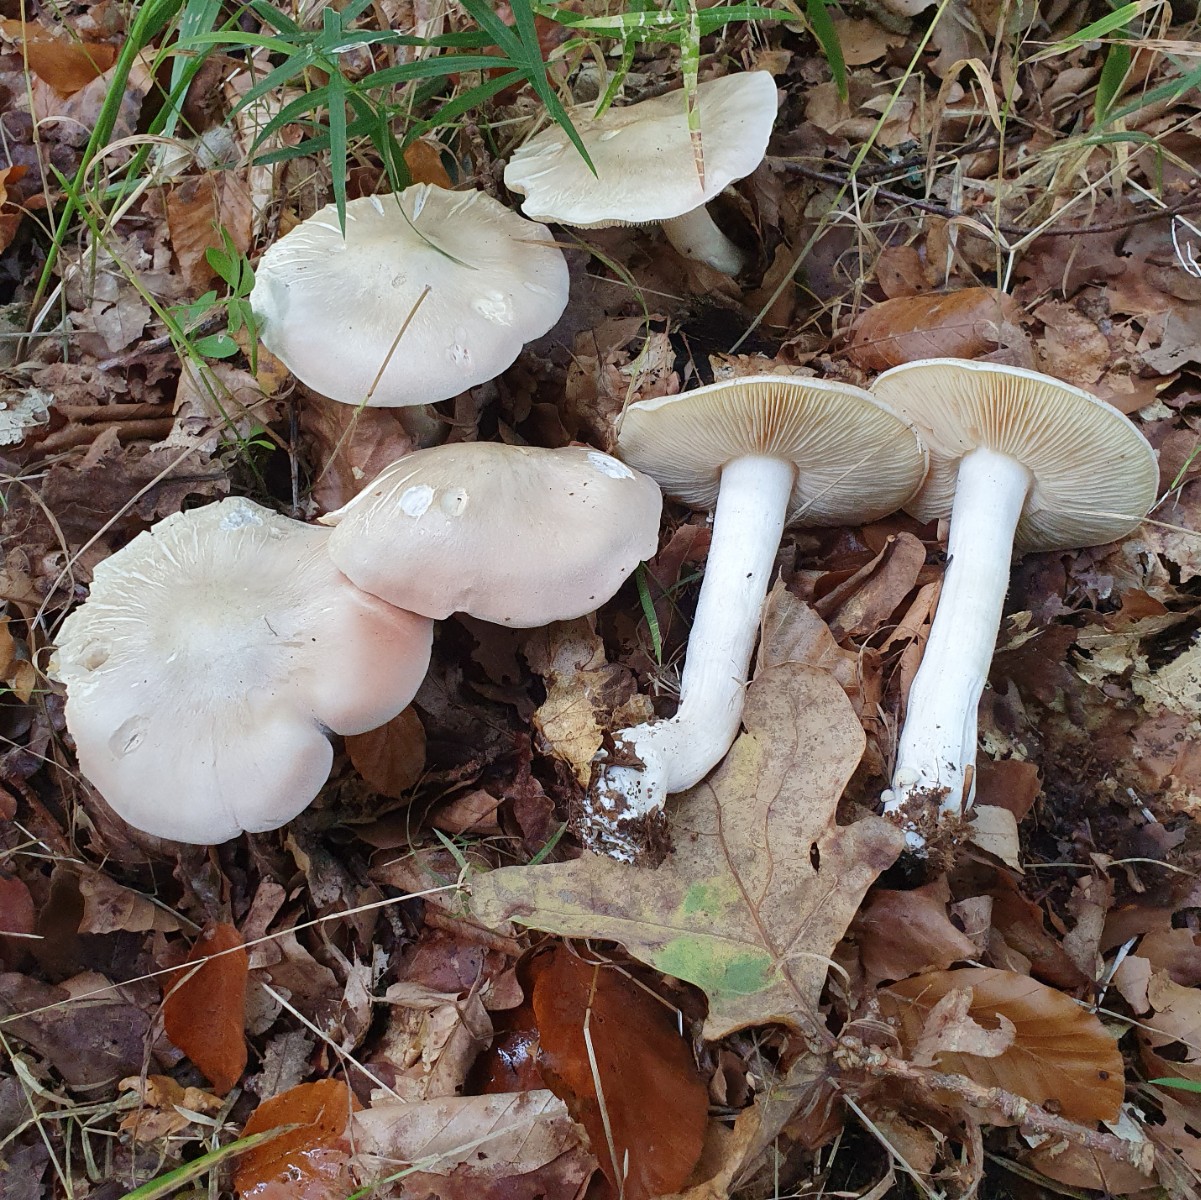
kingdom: Fungi
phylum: Basidiomycota
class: Agaricomycetes
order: Agaricales
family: Entolomataceae
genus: Entoloma
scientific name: Entoloma sinuatum
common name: giftig rødblad
